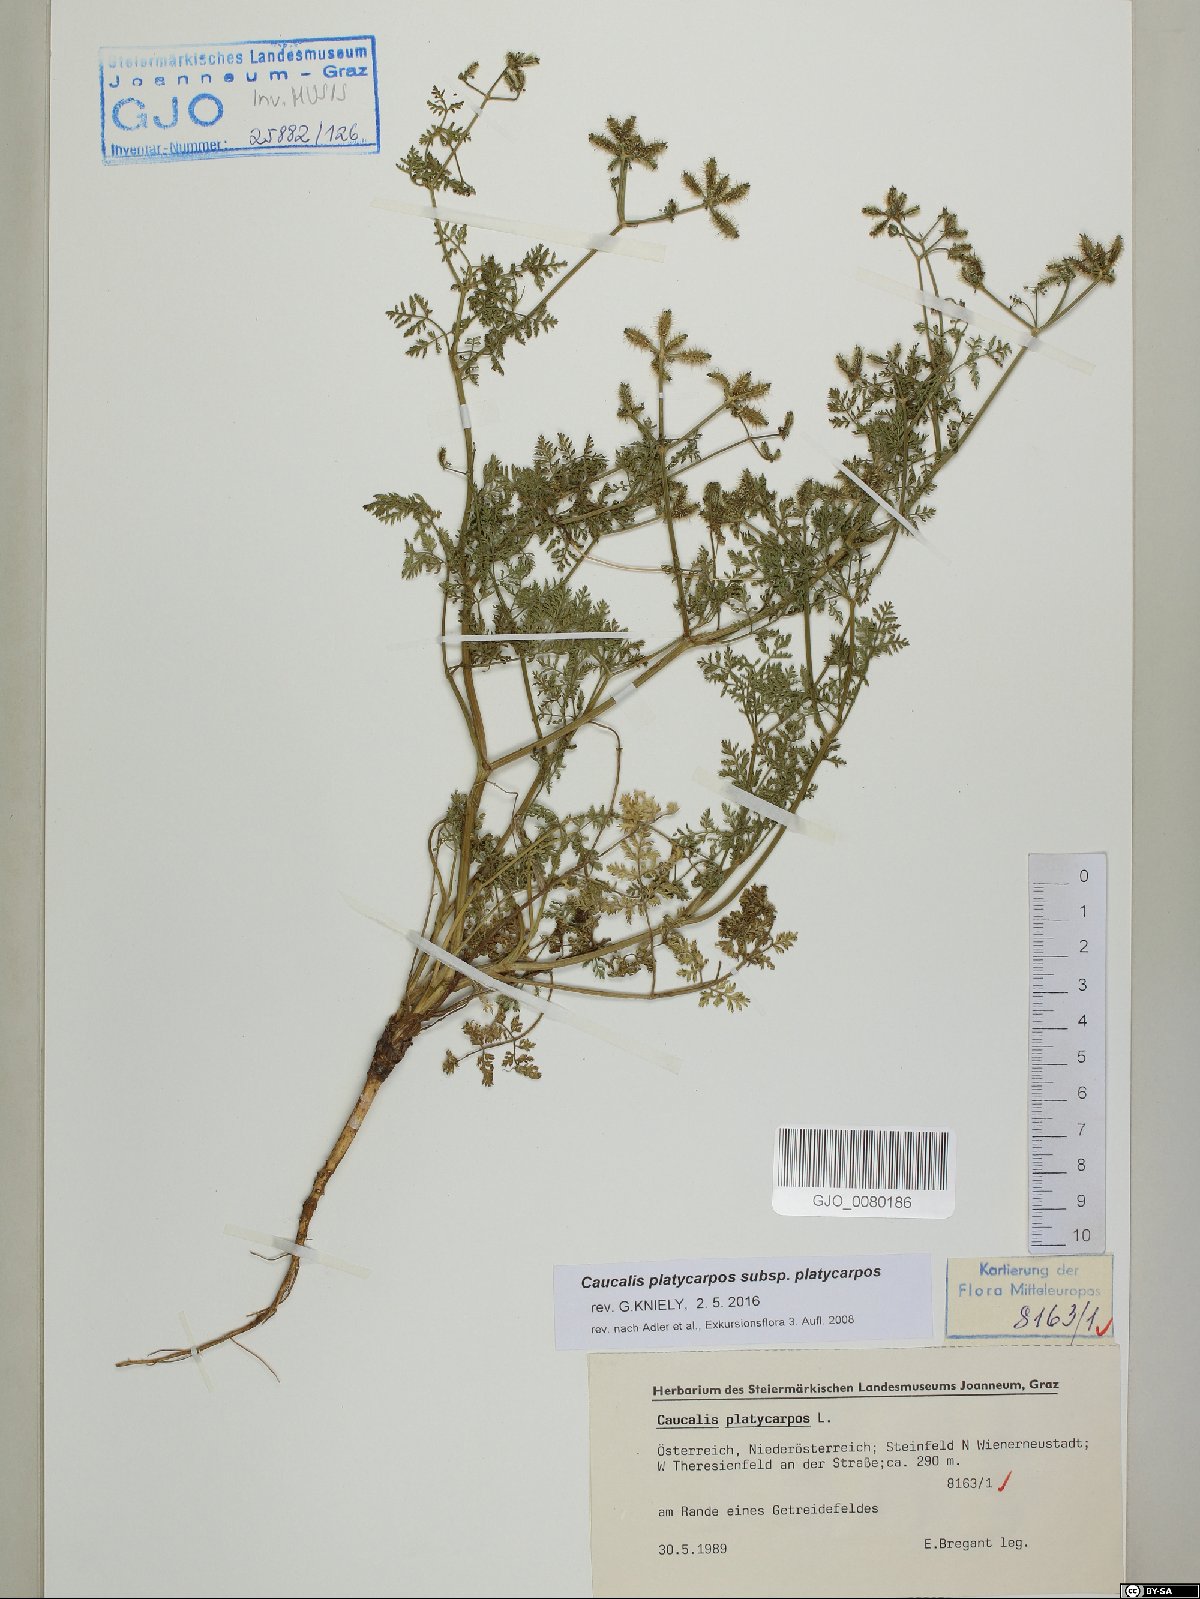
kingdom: Plantae
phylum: Tracheophyta
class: Magnoliopsida
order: Apiales
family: Apiaceae
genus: Caucalis
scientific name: Caucalis platycarpos
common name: Small bur-parsley
